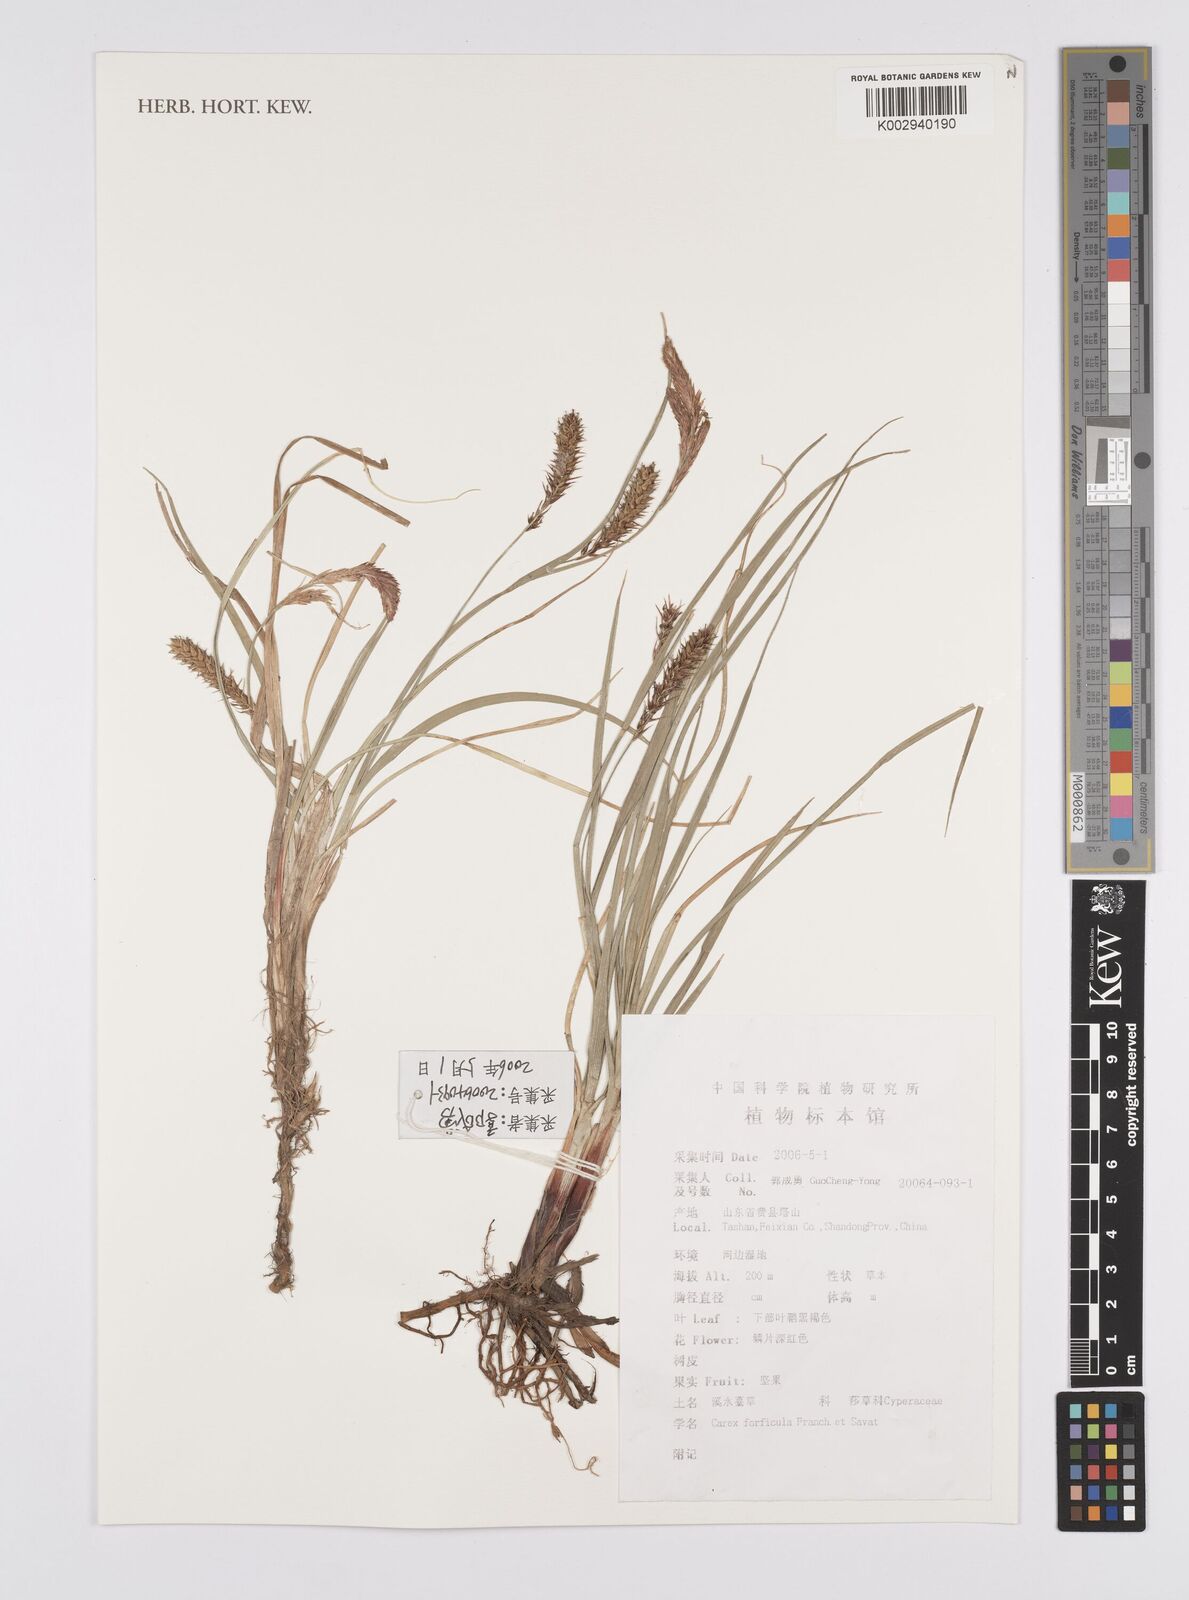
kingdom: Plantae
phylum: Tracheophyta
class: Liliopsida
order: Poales
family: Cyperaceae
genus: Carex
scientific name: Carex forficula
